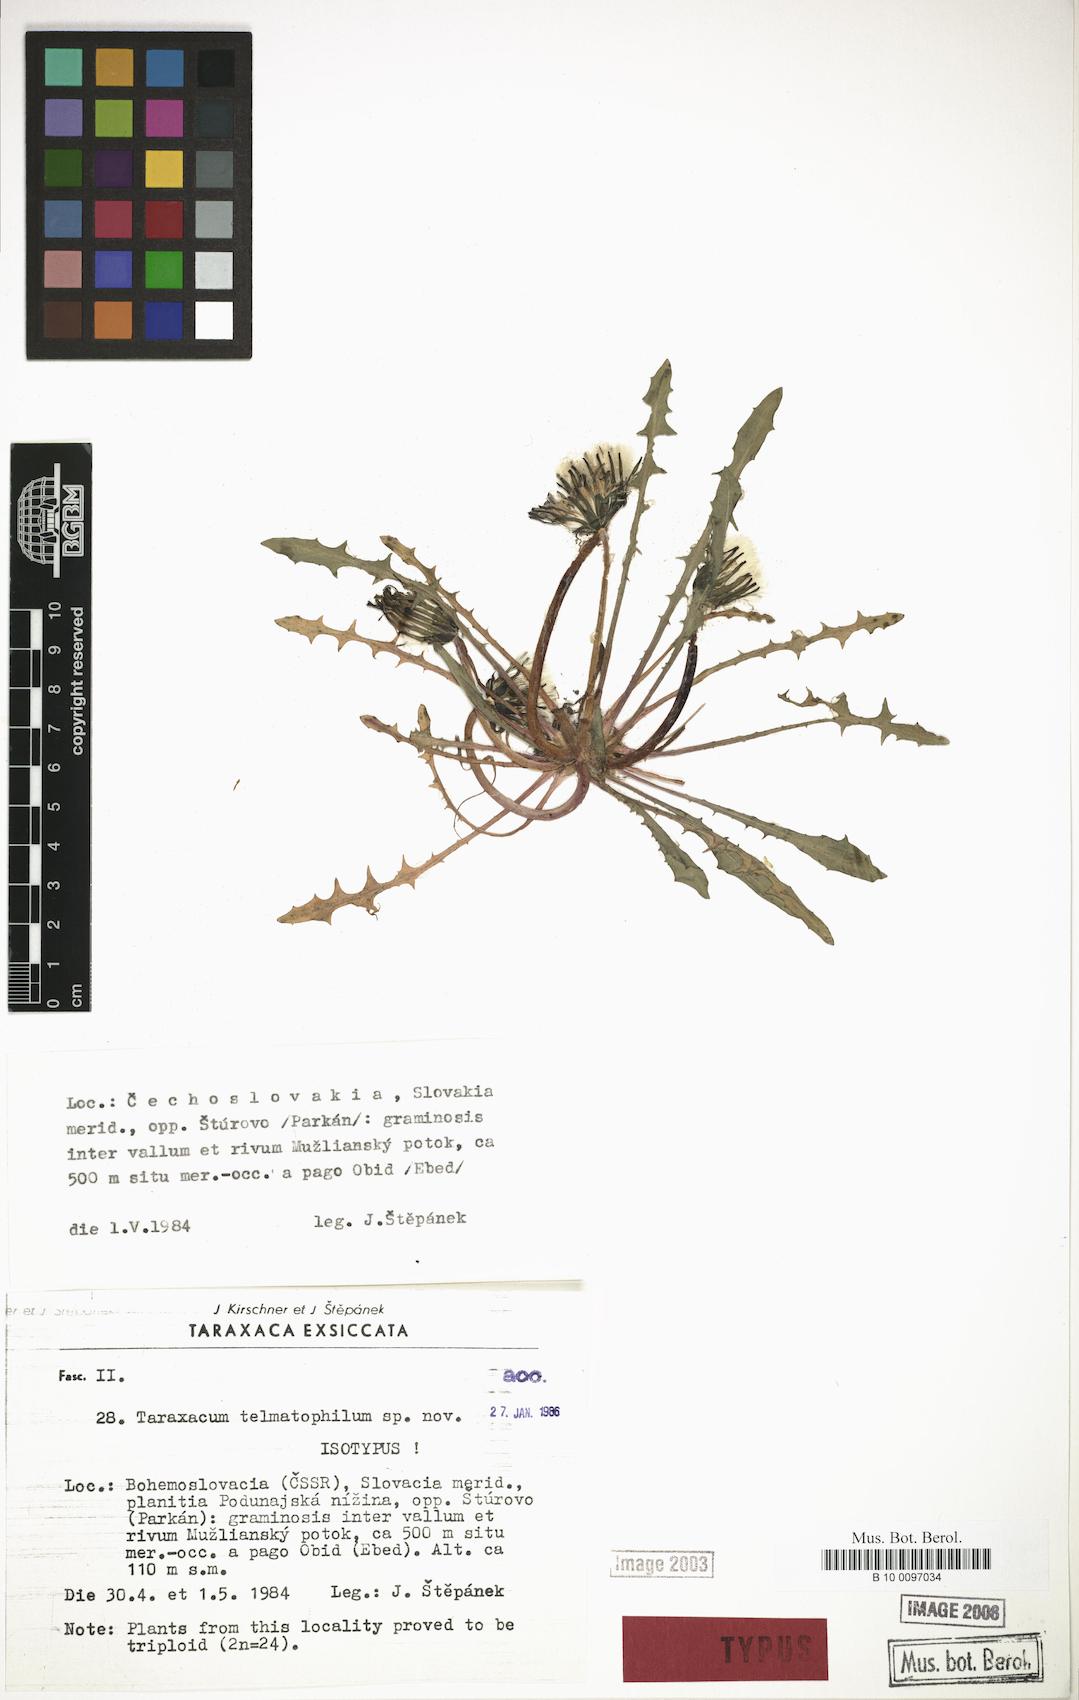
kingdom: Plantae
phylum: Tracheophyta
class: Magnoliopsida
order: Asterales
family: Asteraceae
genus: Taraxacum
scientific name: Taraxacum telmatophilum
